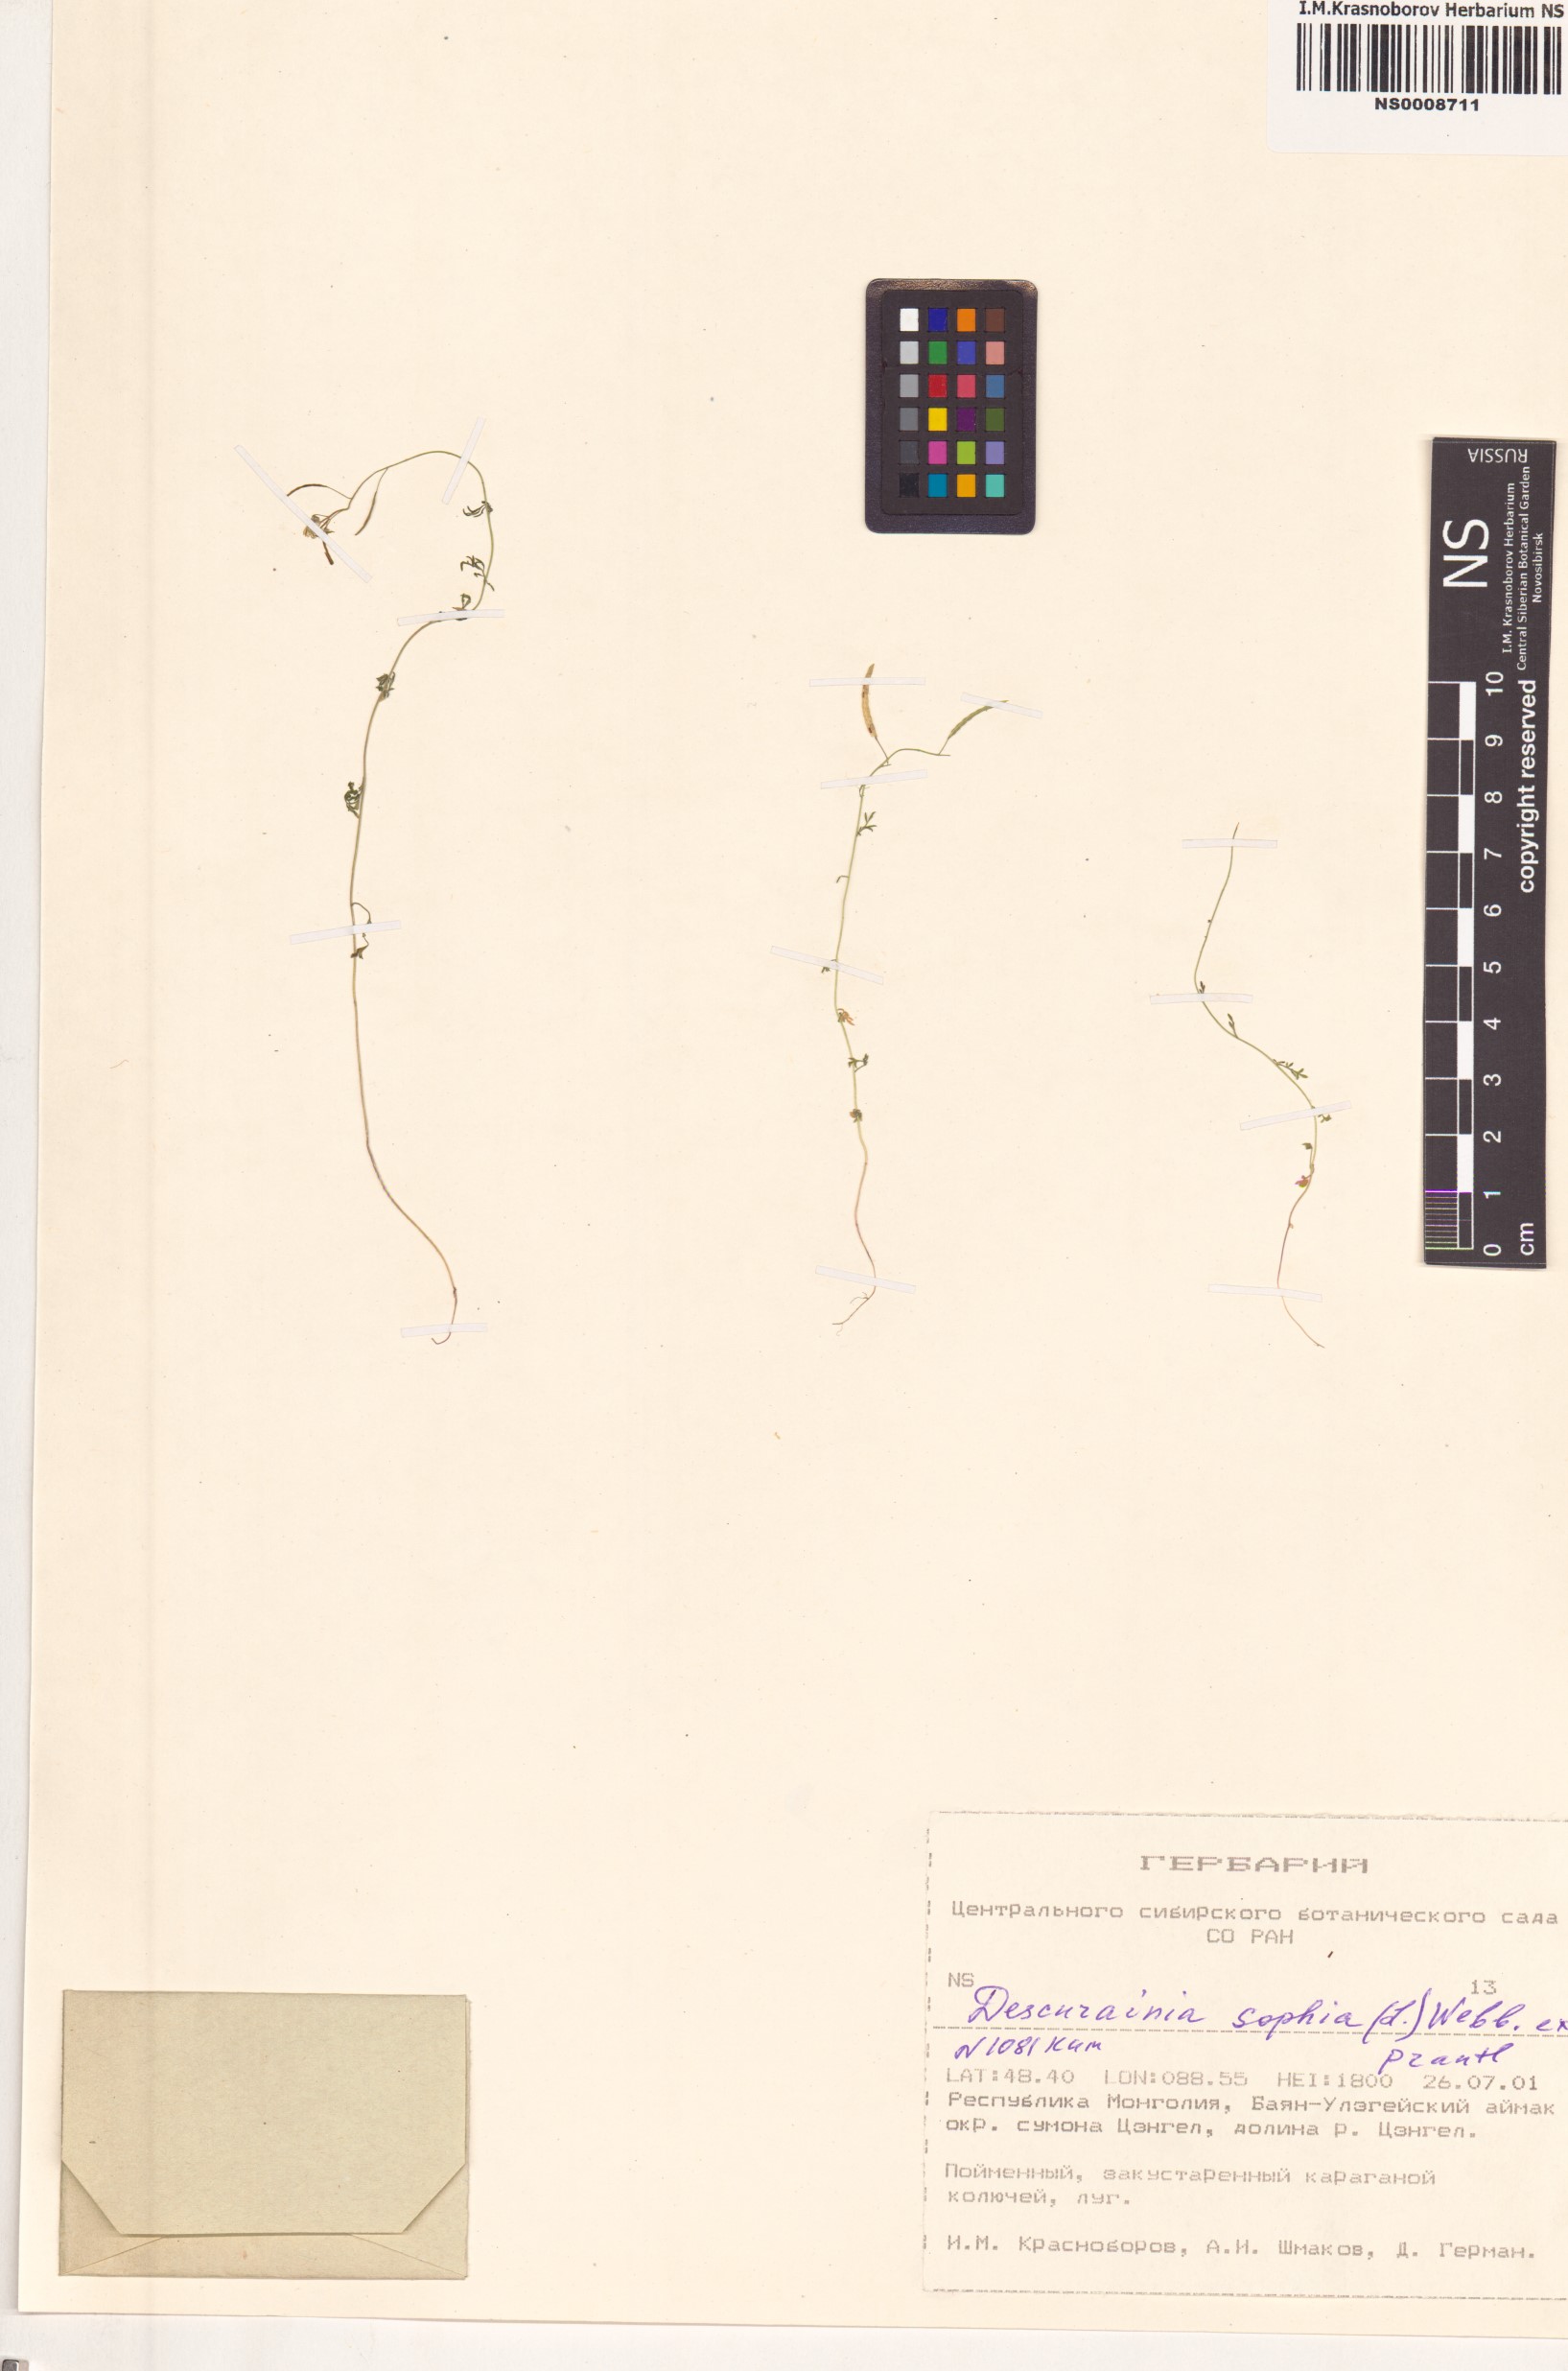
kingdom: Plantae
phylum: Tracheophyta
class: Magnoliopsida
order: Brassicales
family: Brassicaceae
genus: Descurainia
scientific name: Descurainia sophia
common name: Flixweed
